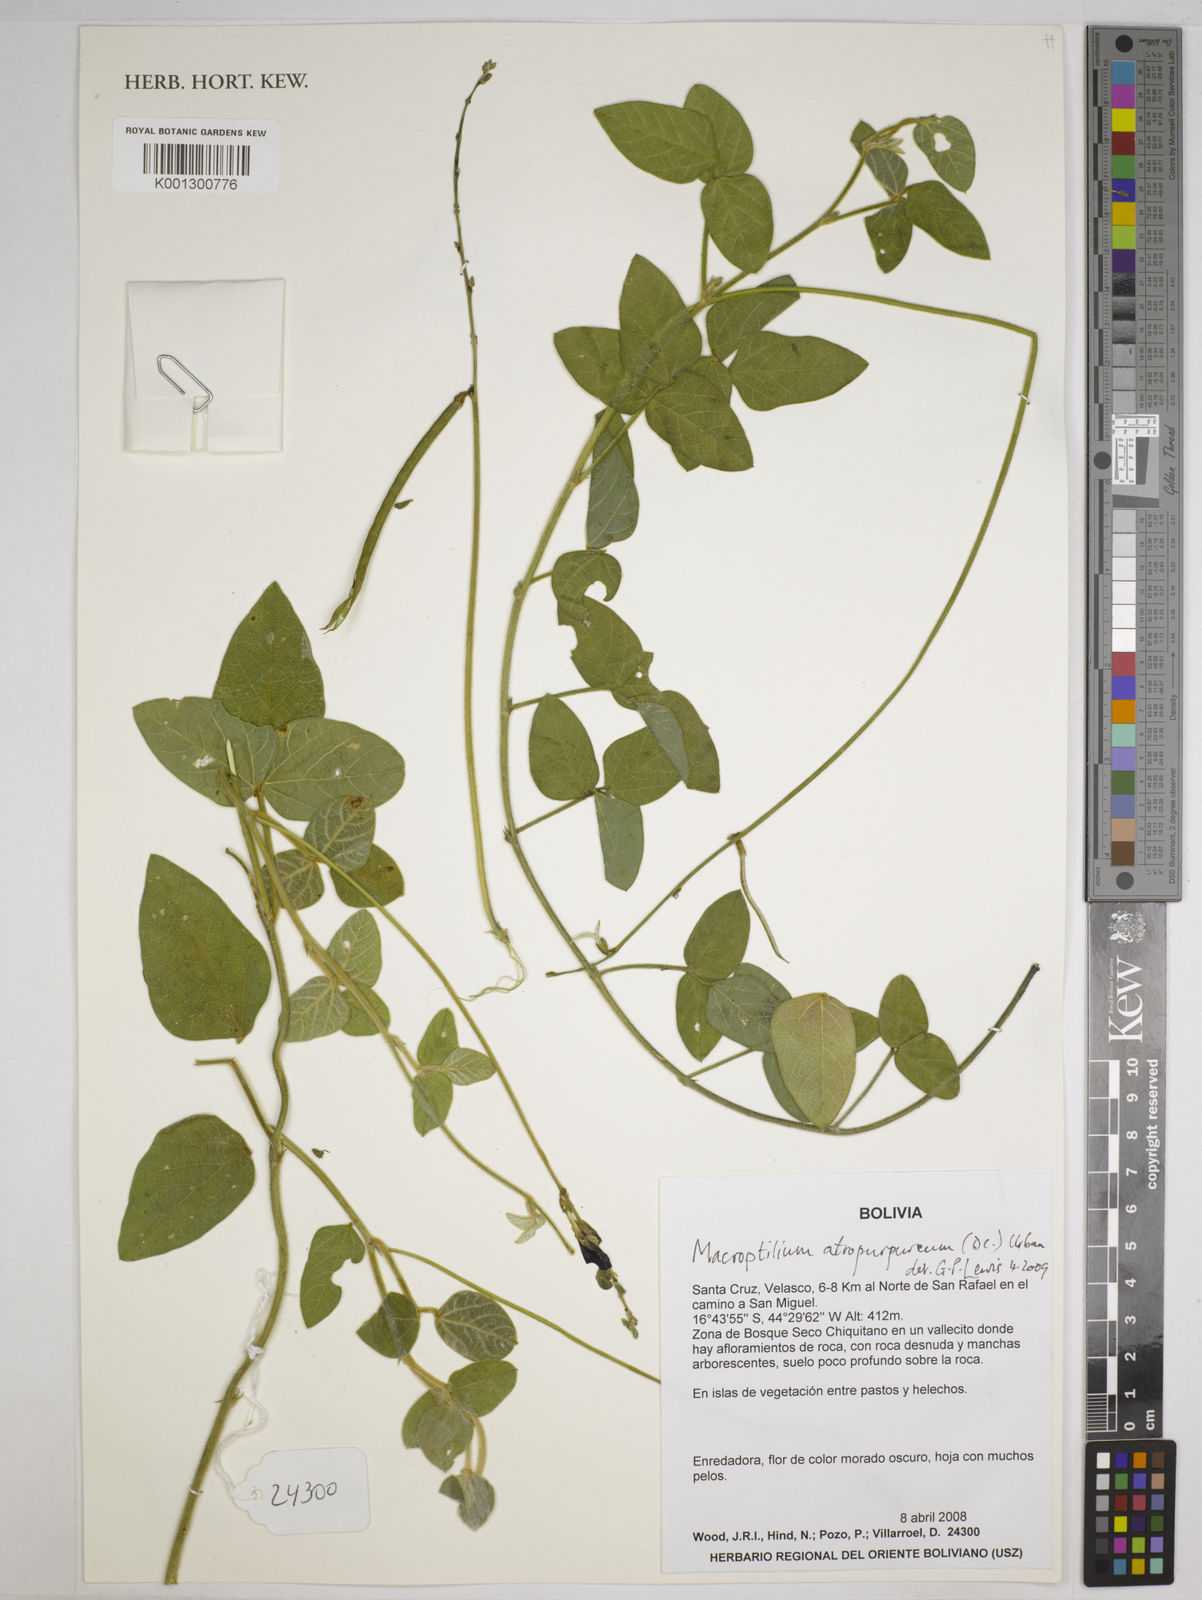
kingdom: Plantae
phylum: Tracheophyta
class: Magnoliopsida
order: Fabales
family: Fabaceae
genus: Macroptilium
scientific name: Macroptilium atropurpureum
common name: Purple bushbean
